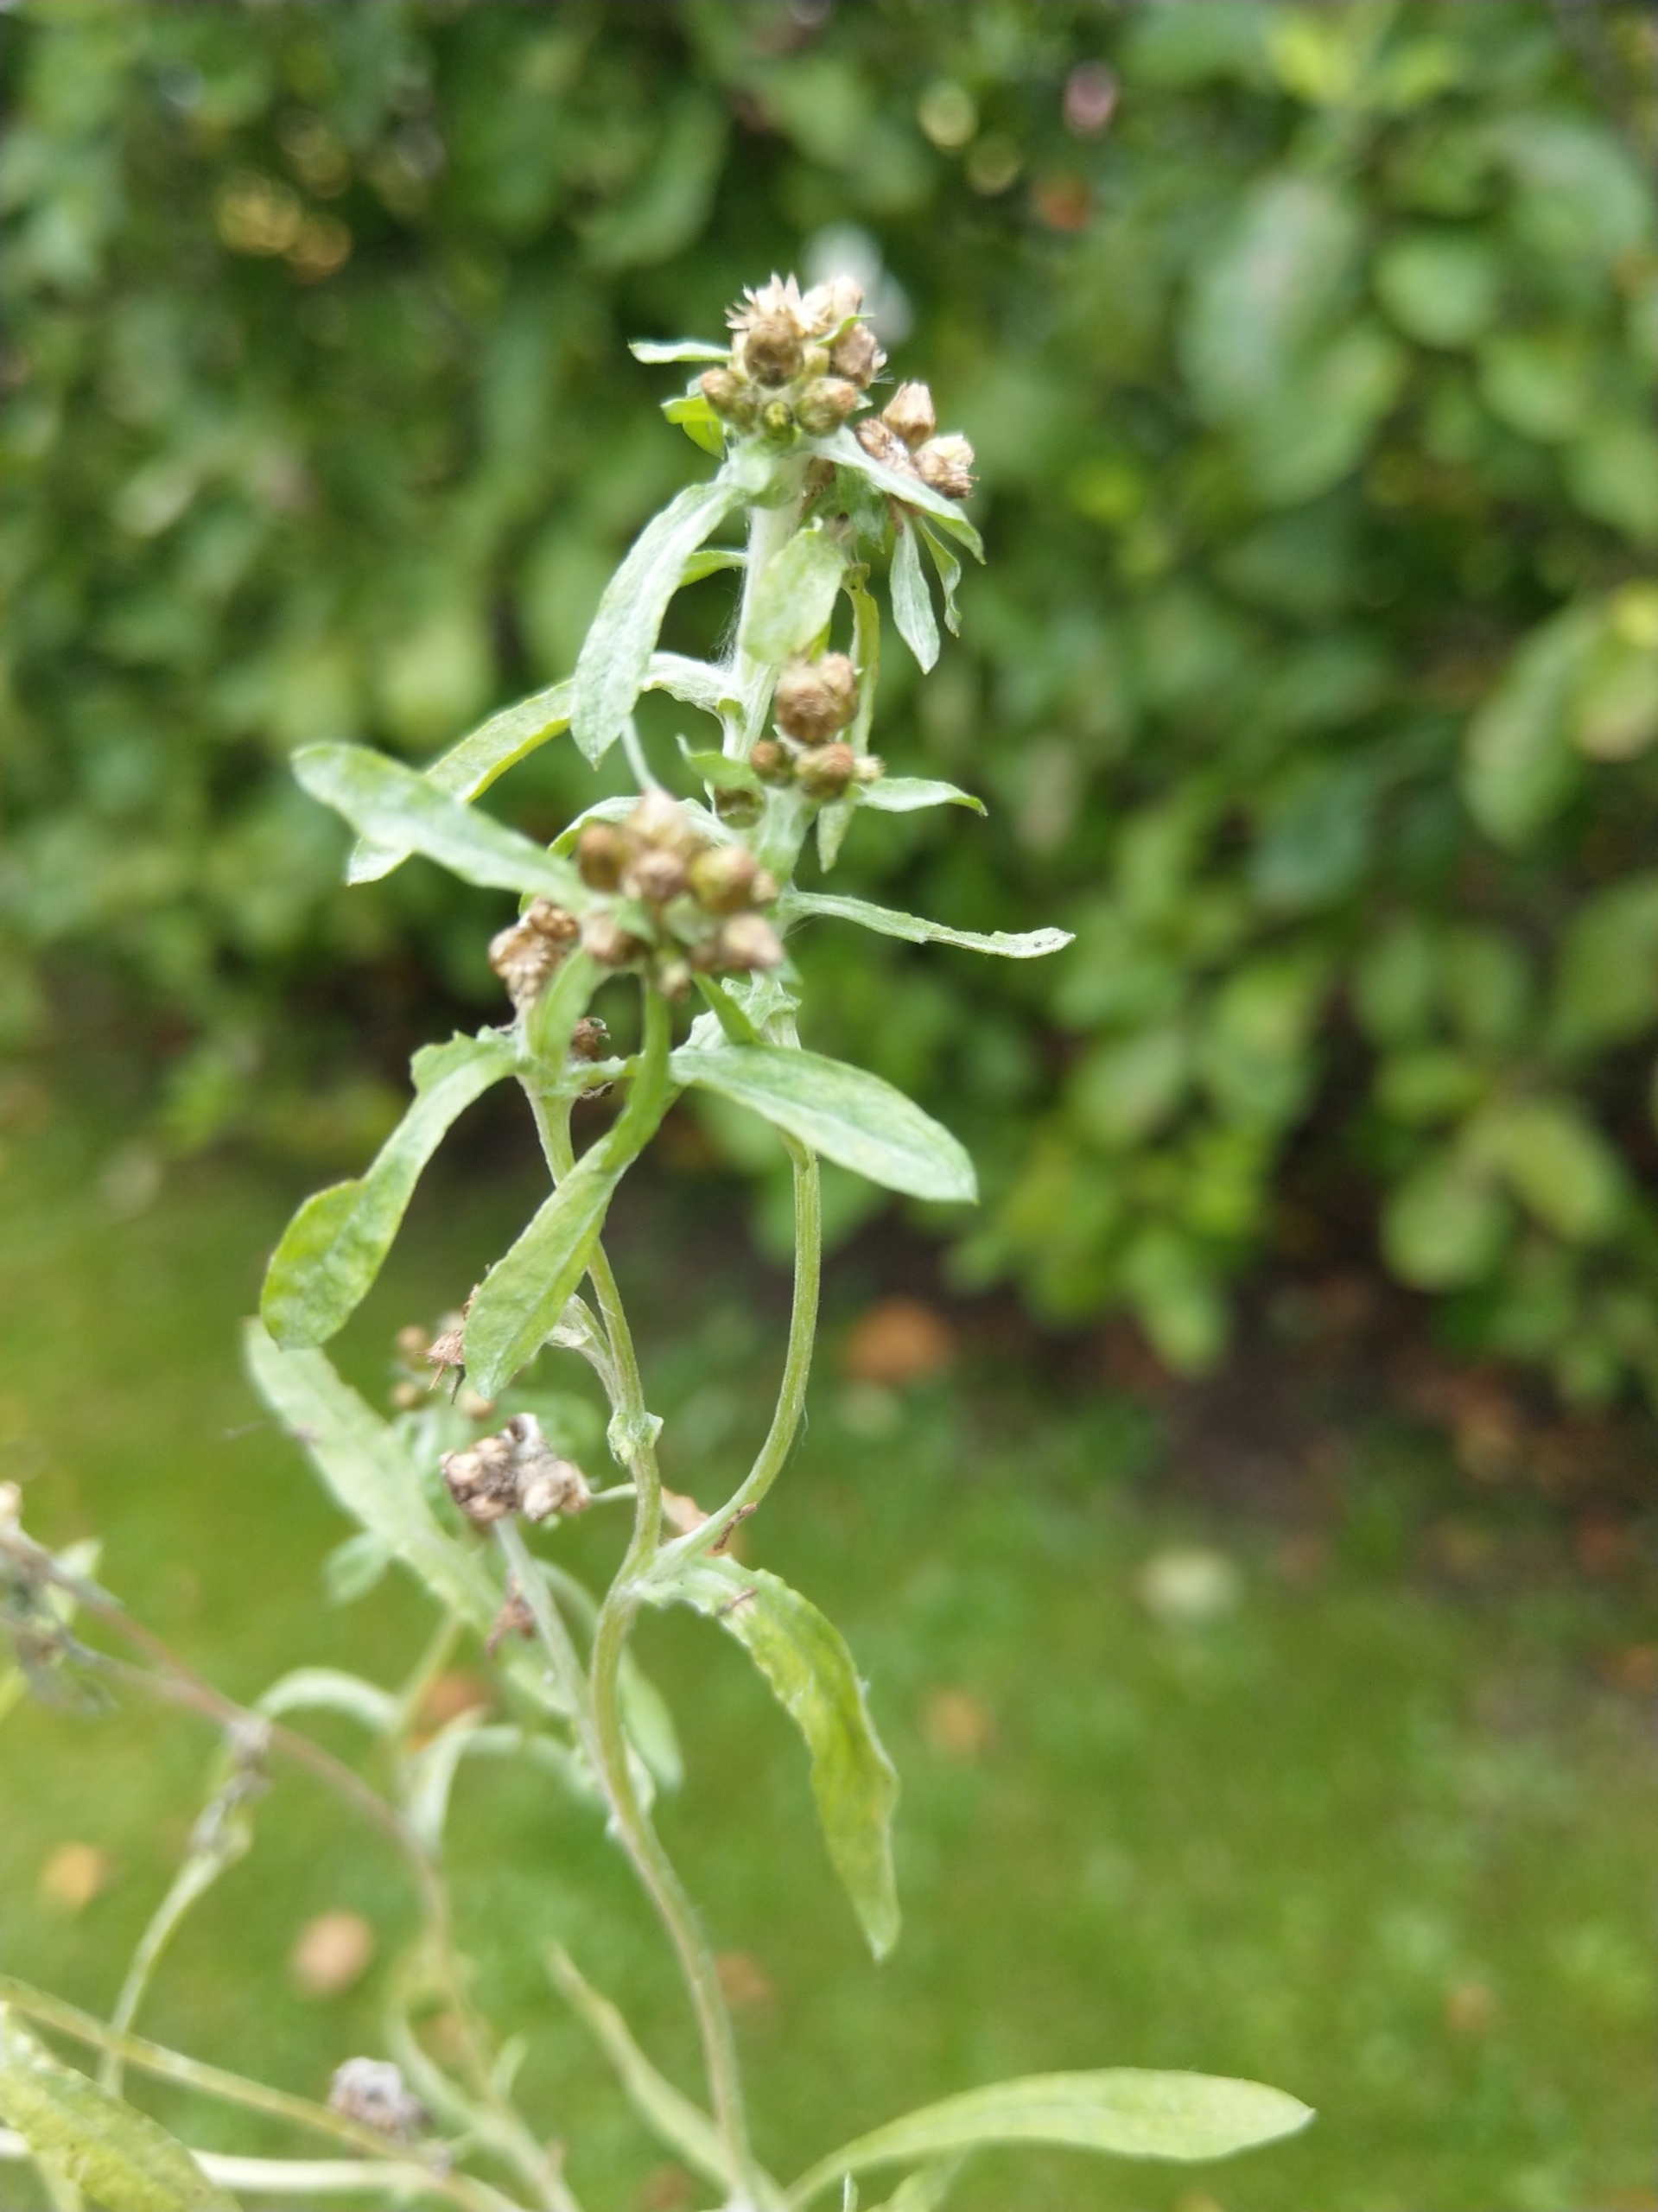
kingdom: Plantae
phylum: Tracheophyta
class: Magnoliopsida
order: Asterales
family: Asteraceae
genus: Gnaphalium
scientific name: Gnaphalium uliginosum
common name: Sump-evighedsblomst
